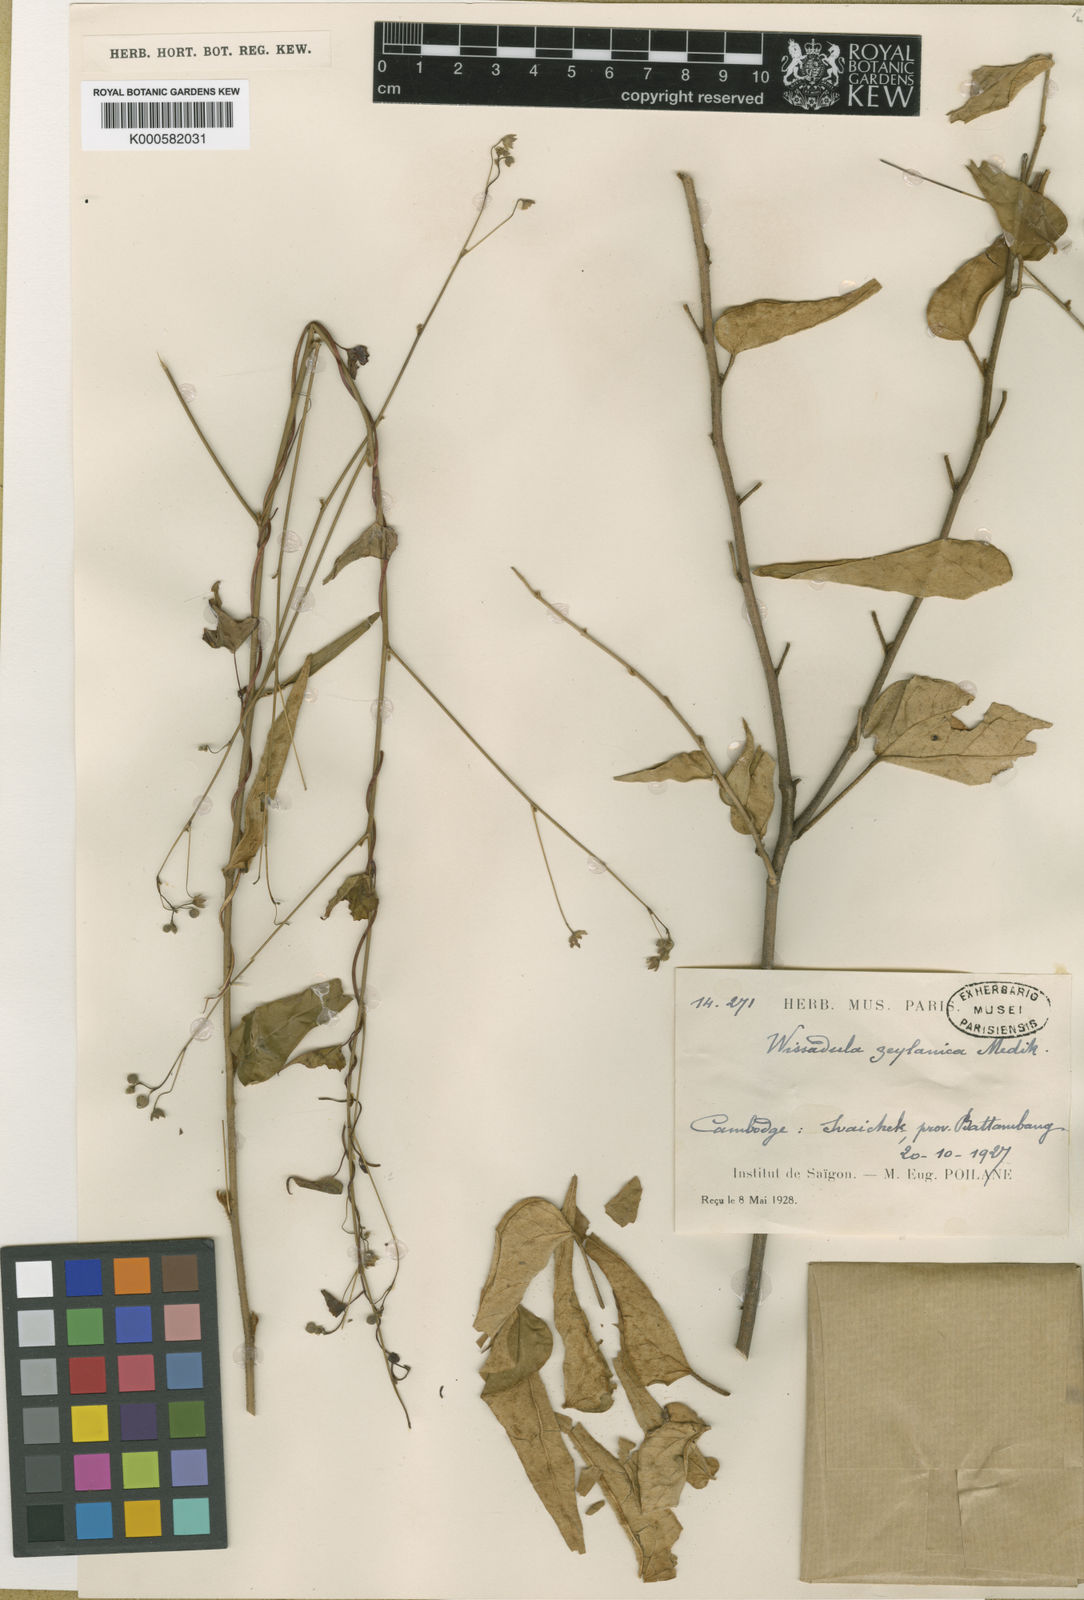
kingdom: Plantae
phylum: Tracheophyta
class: Magnoliopsida
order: Malvales
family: Malvaceae
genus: Wissadula
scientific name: Wissadula periplocifolia
